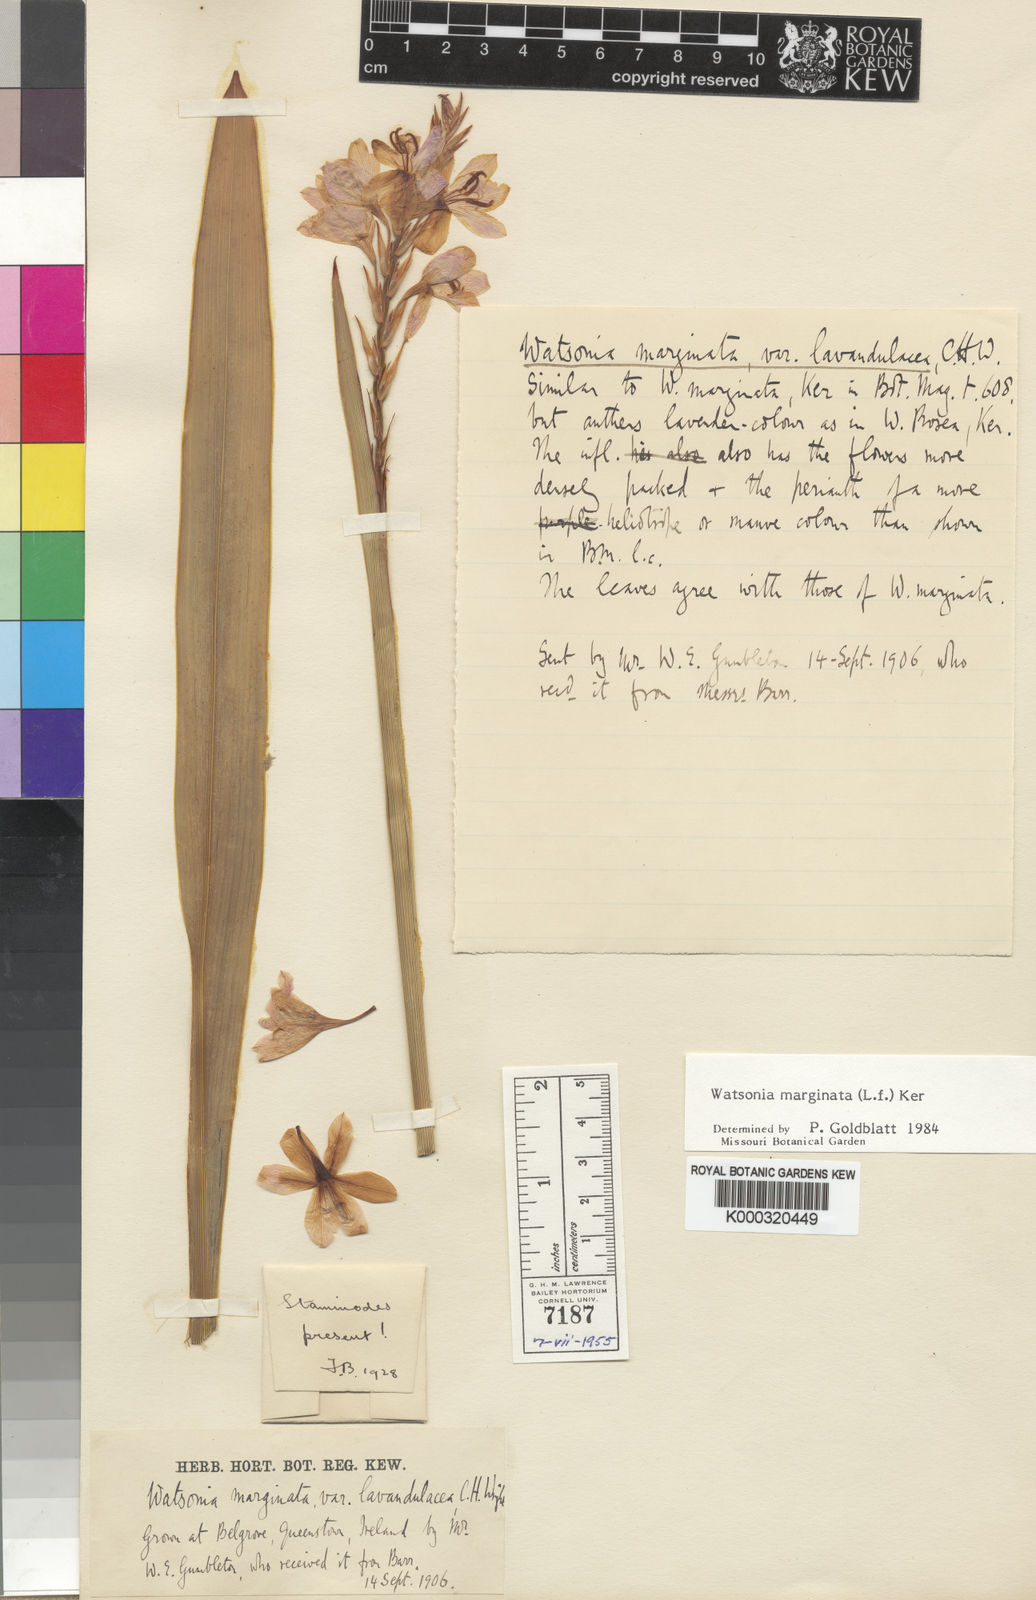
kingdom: Plantae
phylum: Tracheophyta
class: Liliopsida
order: Asparagales
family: Iridaceae
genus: Watsonia
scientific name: Watsonia marginata
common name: Fragrant bugle-lily
